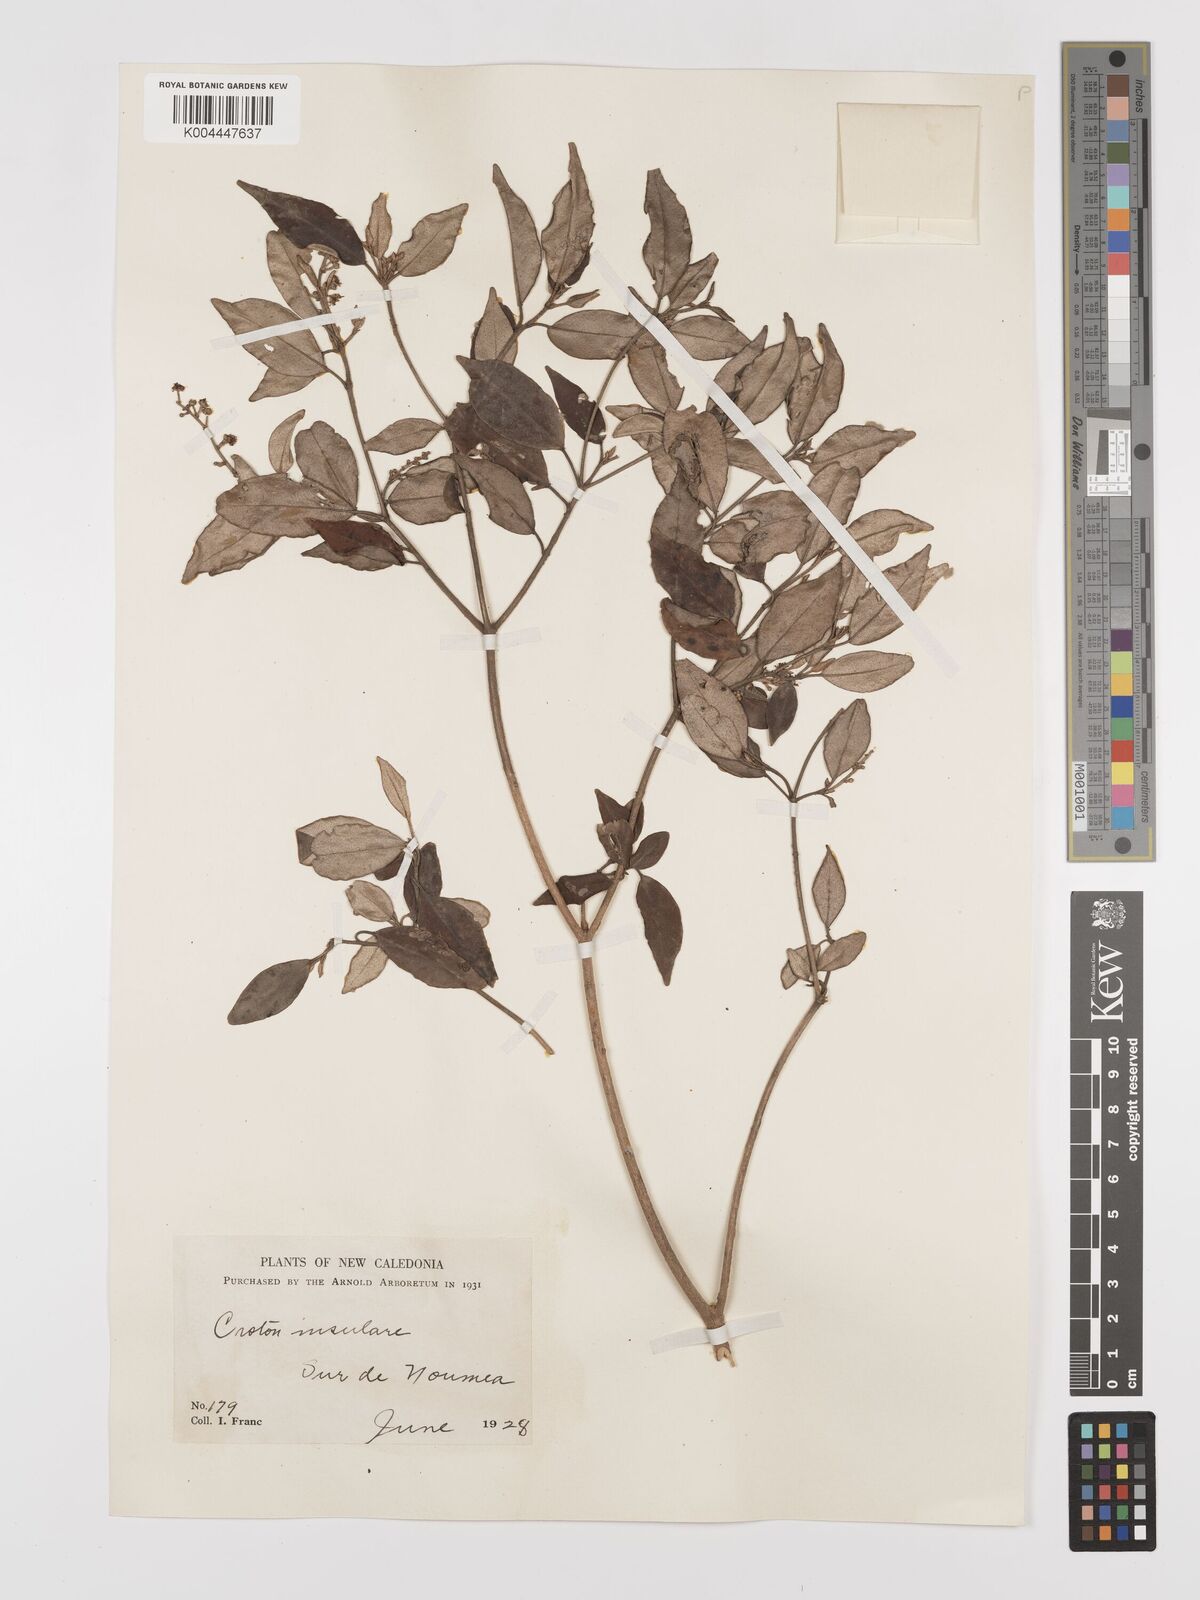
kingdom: Plantae
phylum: Tracheophyta
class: Magnoliopsida
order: Malpighiales
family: Euphorbiaceae
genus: Croton
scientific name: Croton insularis
